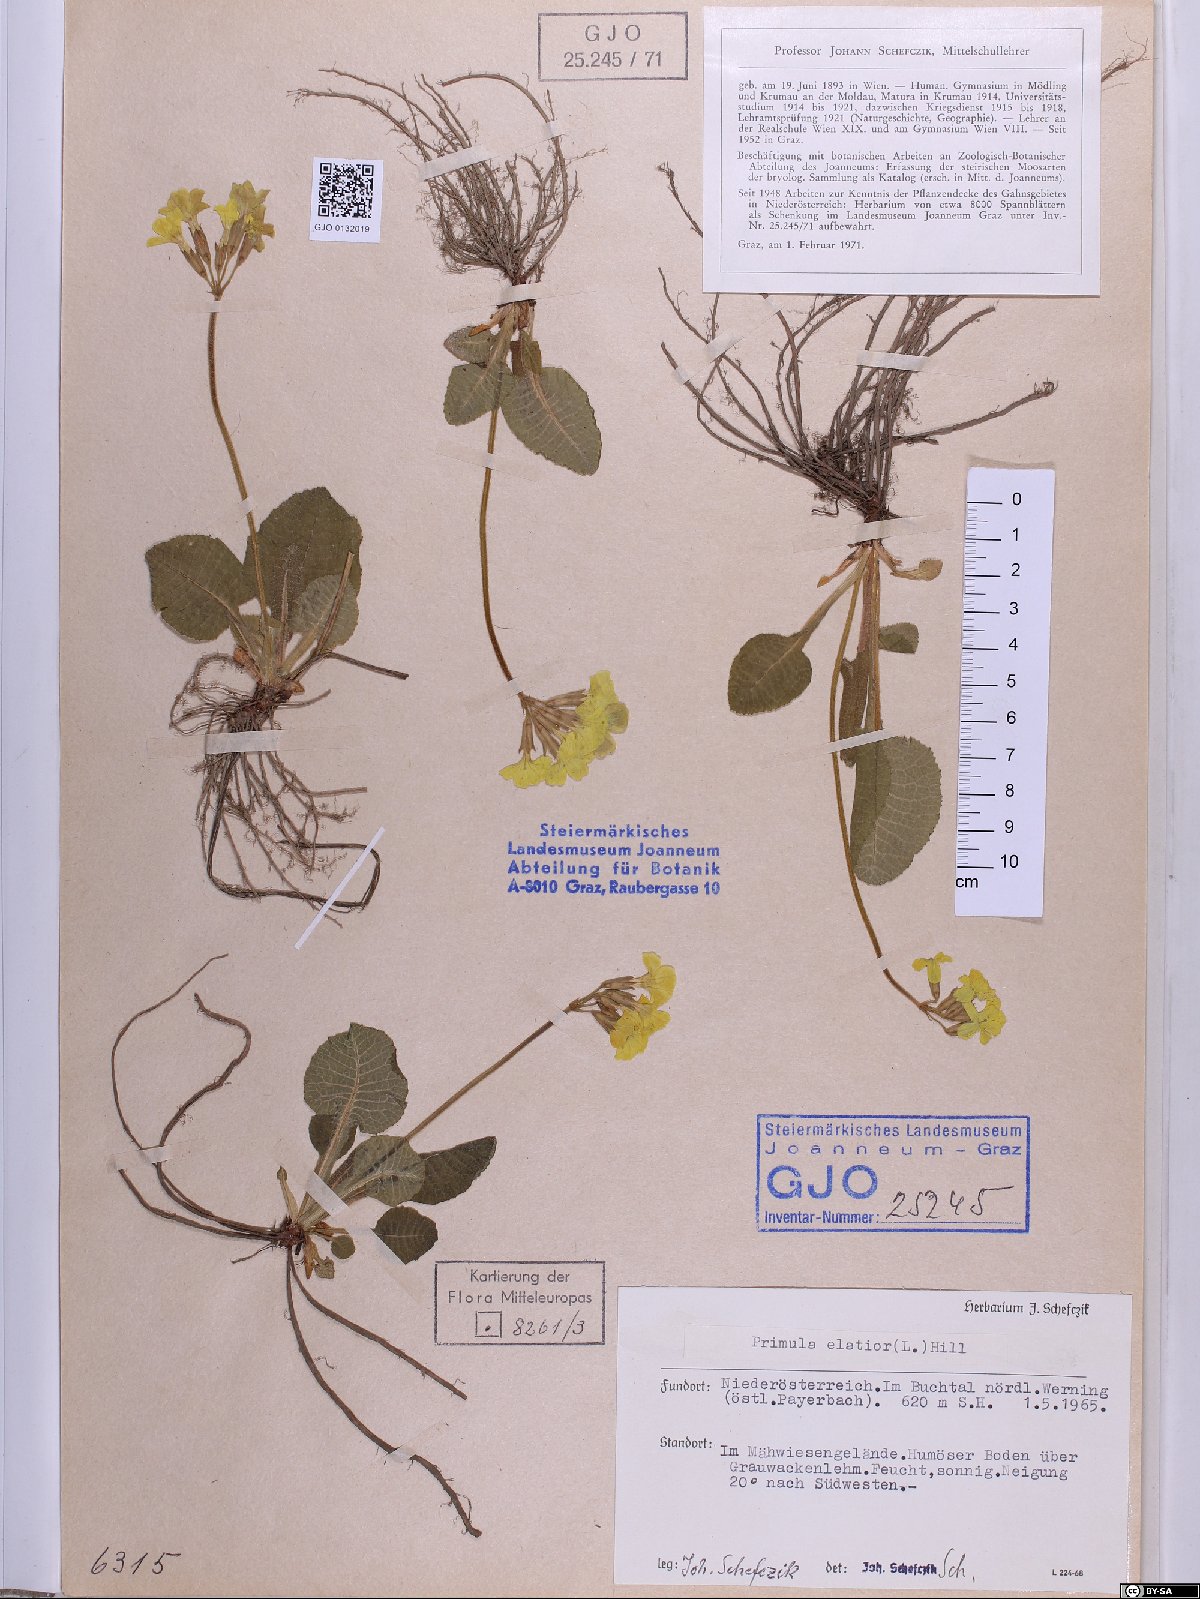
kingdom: Plantae
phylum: Tracheophyta
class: Magnoliopsida
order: Ericales
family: Primulaceae
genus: Primula
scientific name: Primula elatior
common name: Oxlip
